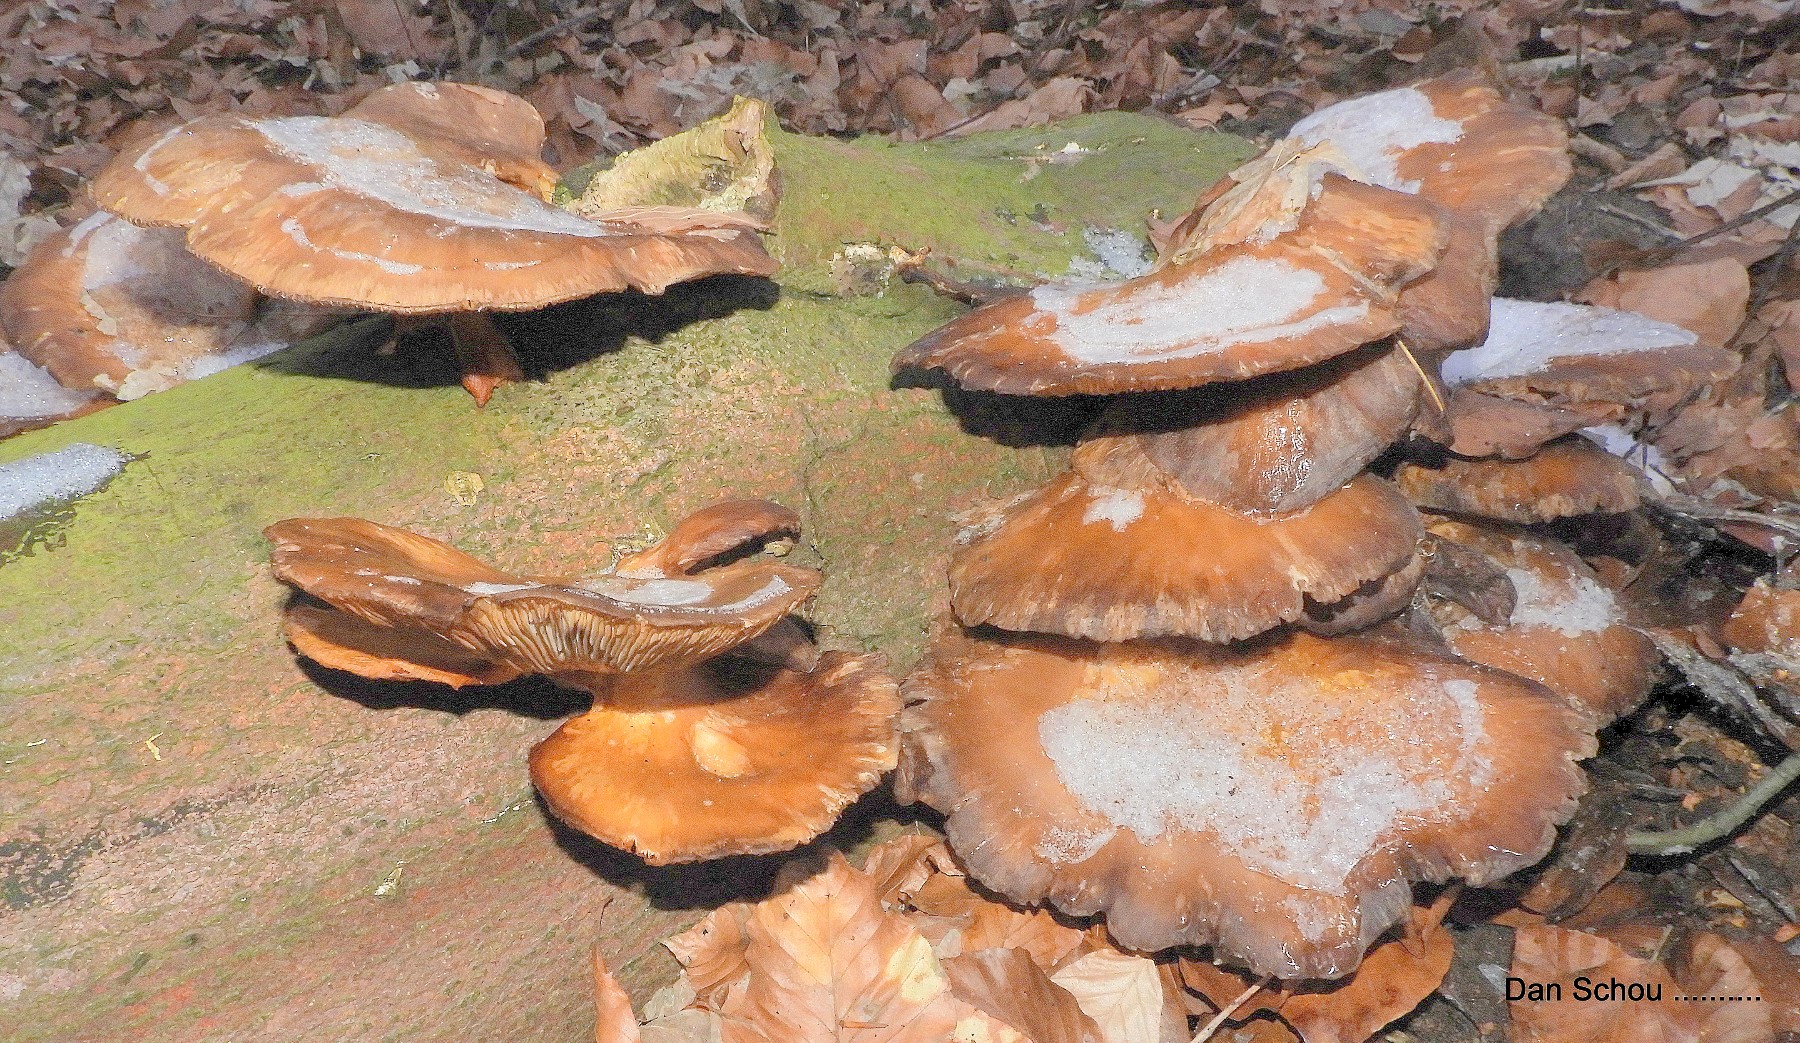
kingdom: Fungi
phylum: Basidiomycota
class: Agaricomycetes
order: Agaricales
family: Pleurotaceae
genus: Pleurotus
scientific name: Pleurotus ostreatus
